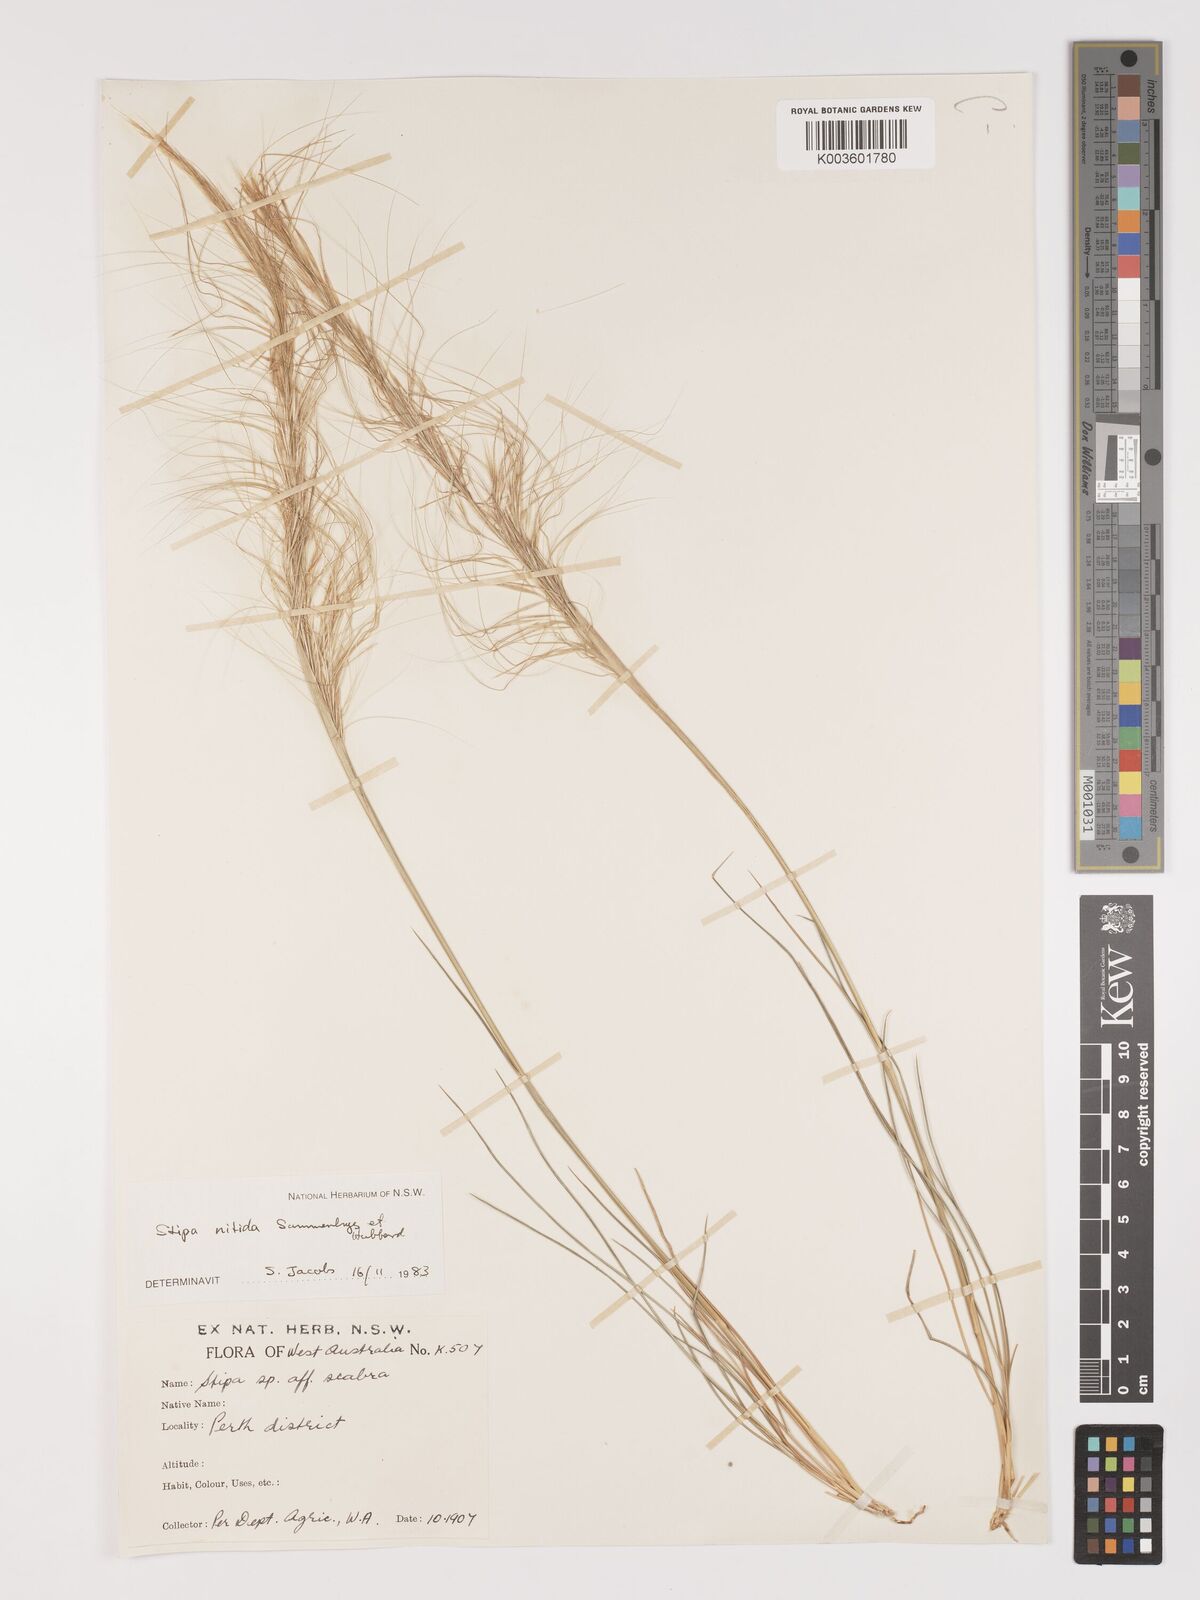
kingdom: Plantae
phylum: Tracheophyta
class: Liliopsida
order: Poales
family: Poaceae
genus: Austrostipa
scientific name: Austrostipa nitida
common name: Balcarra grass
